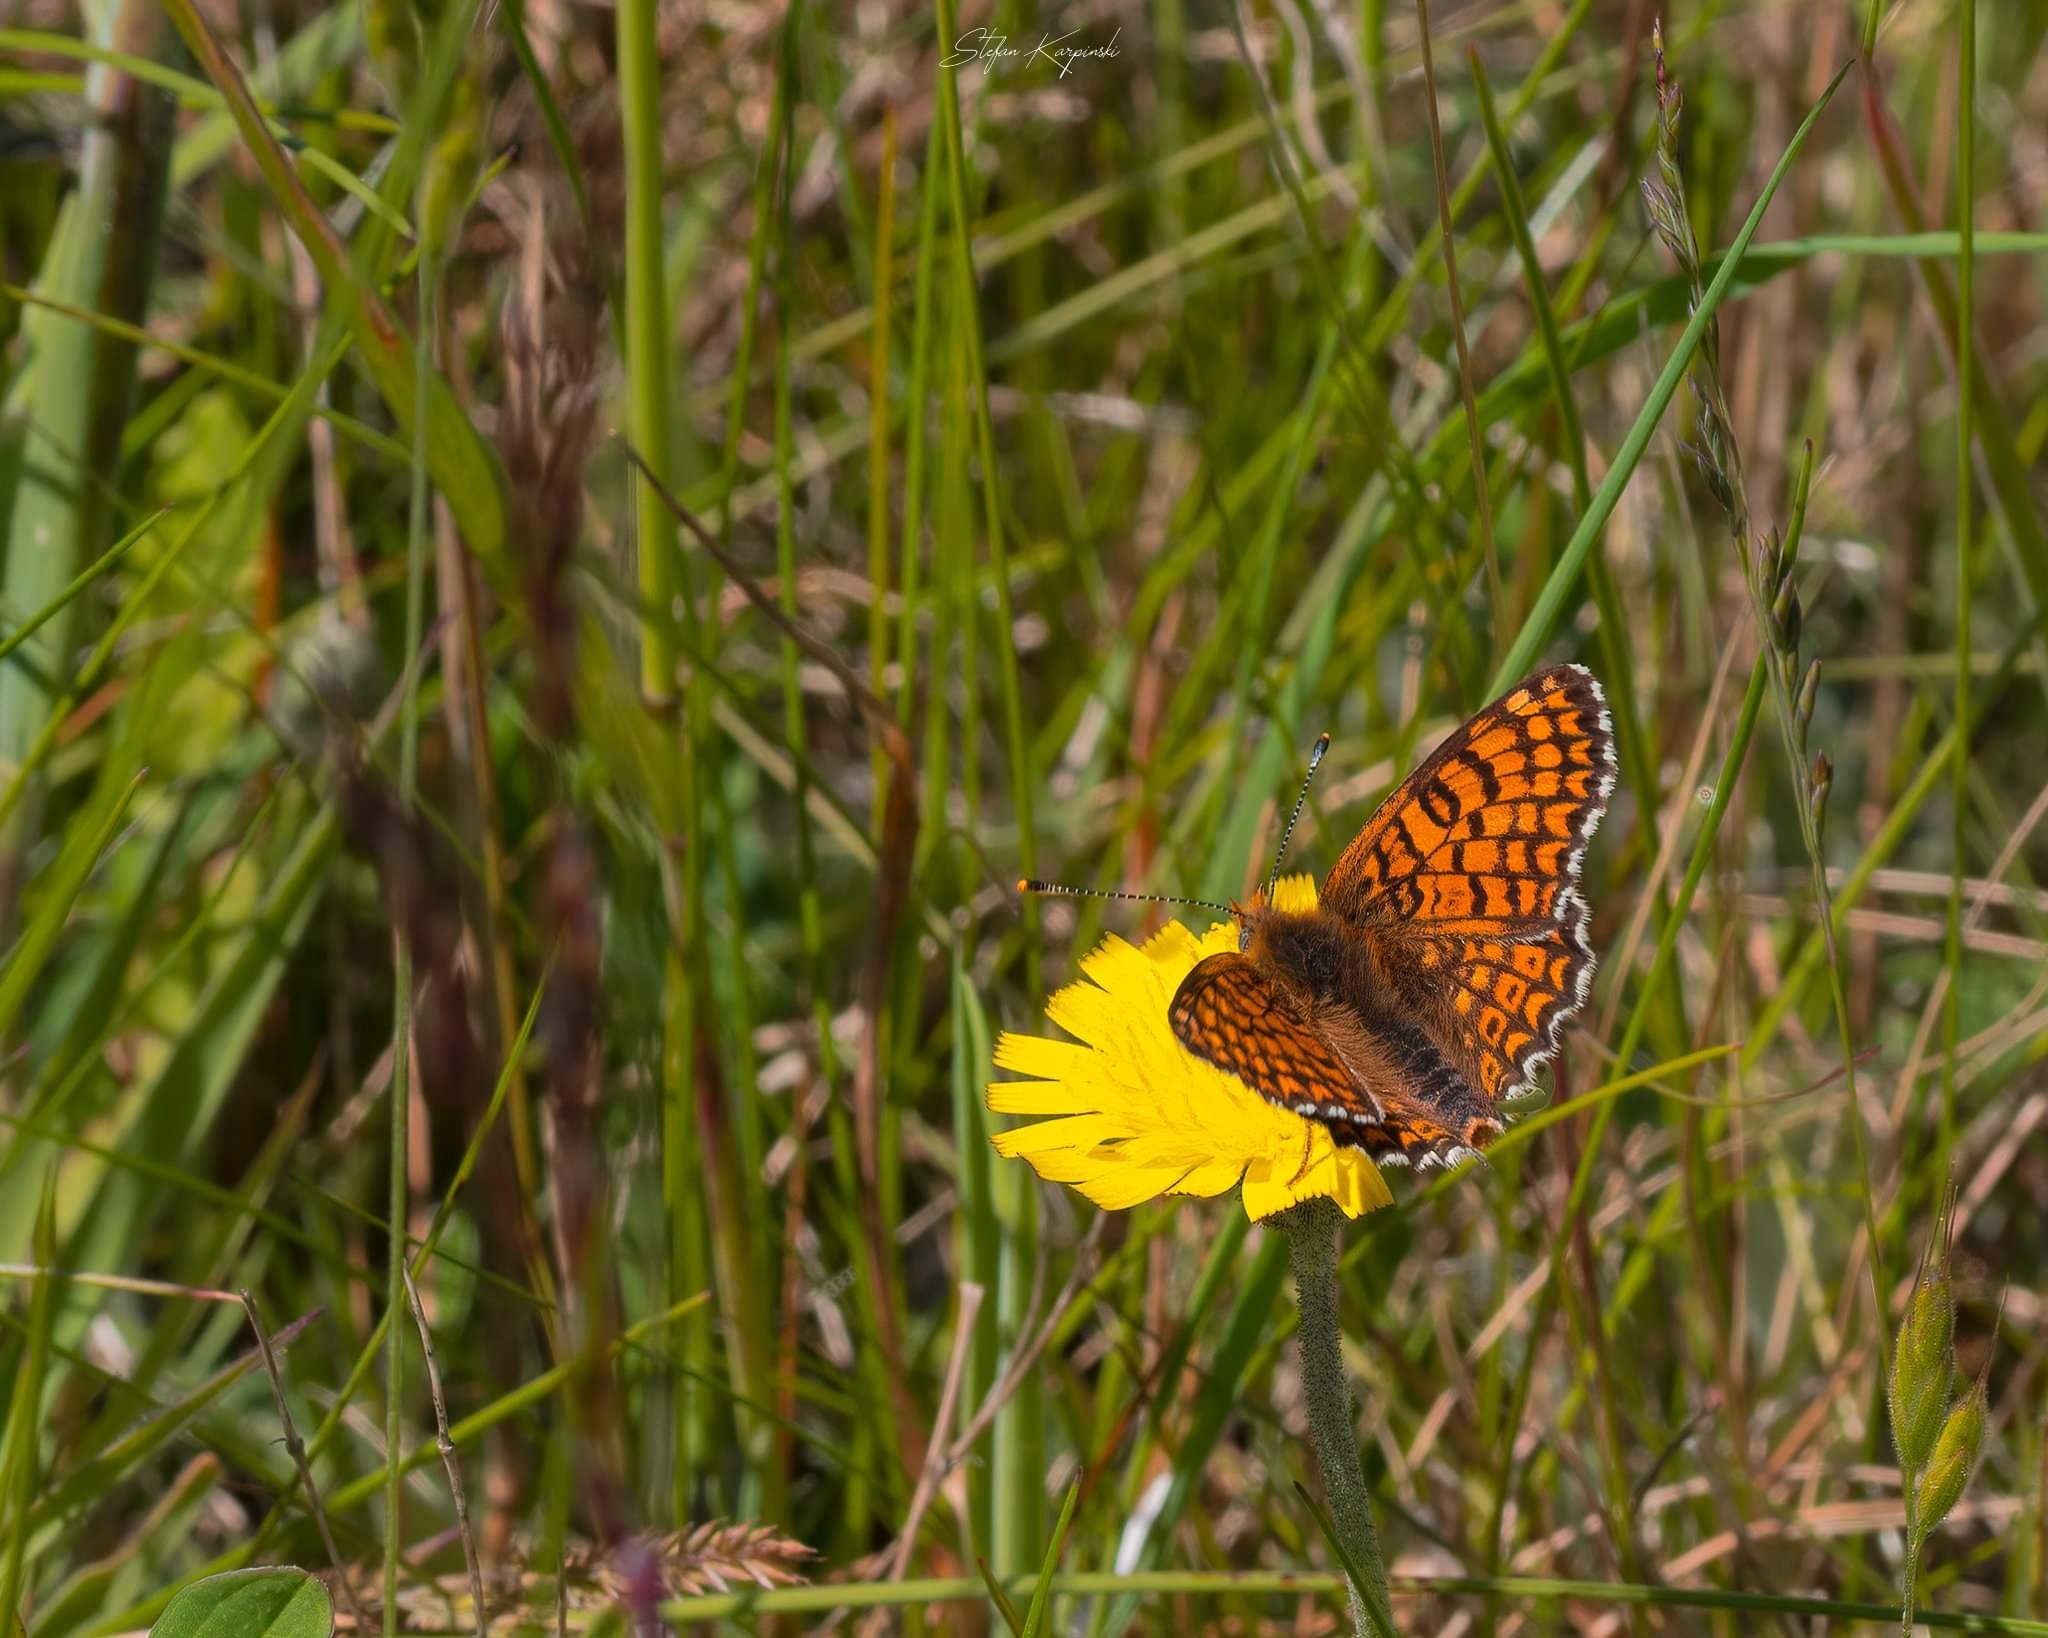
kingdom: Animalia
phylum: Arthropoda
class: Insecta
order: Lepidoptera
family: Nymphalidae
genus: Melitaea
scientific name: Melitaea cinxia
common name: Okkergul pletvinge
